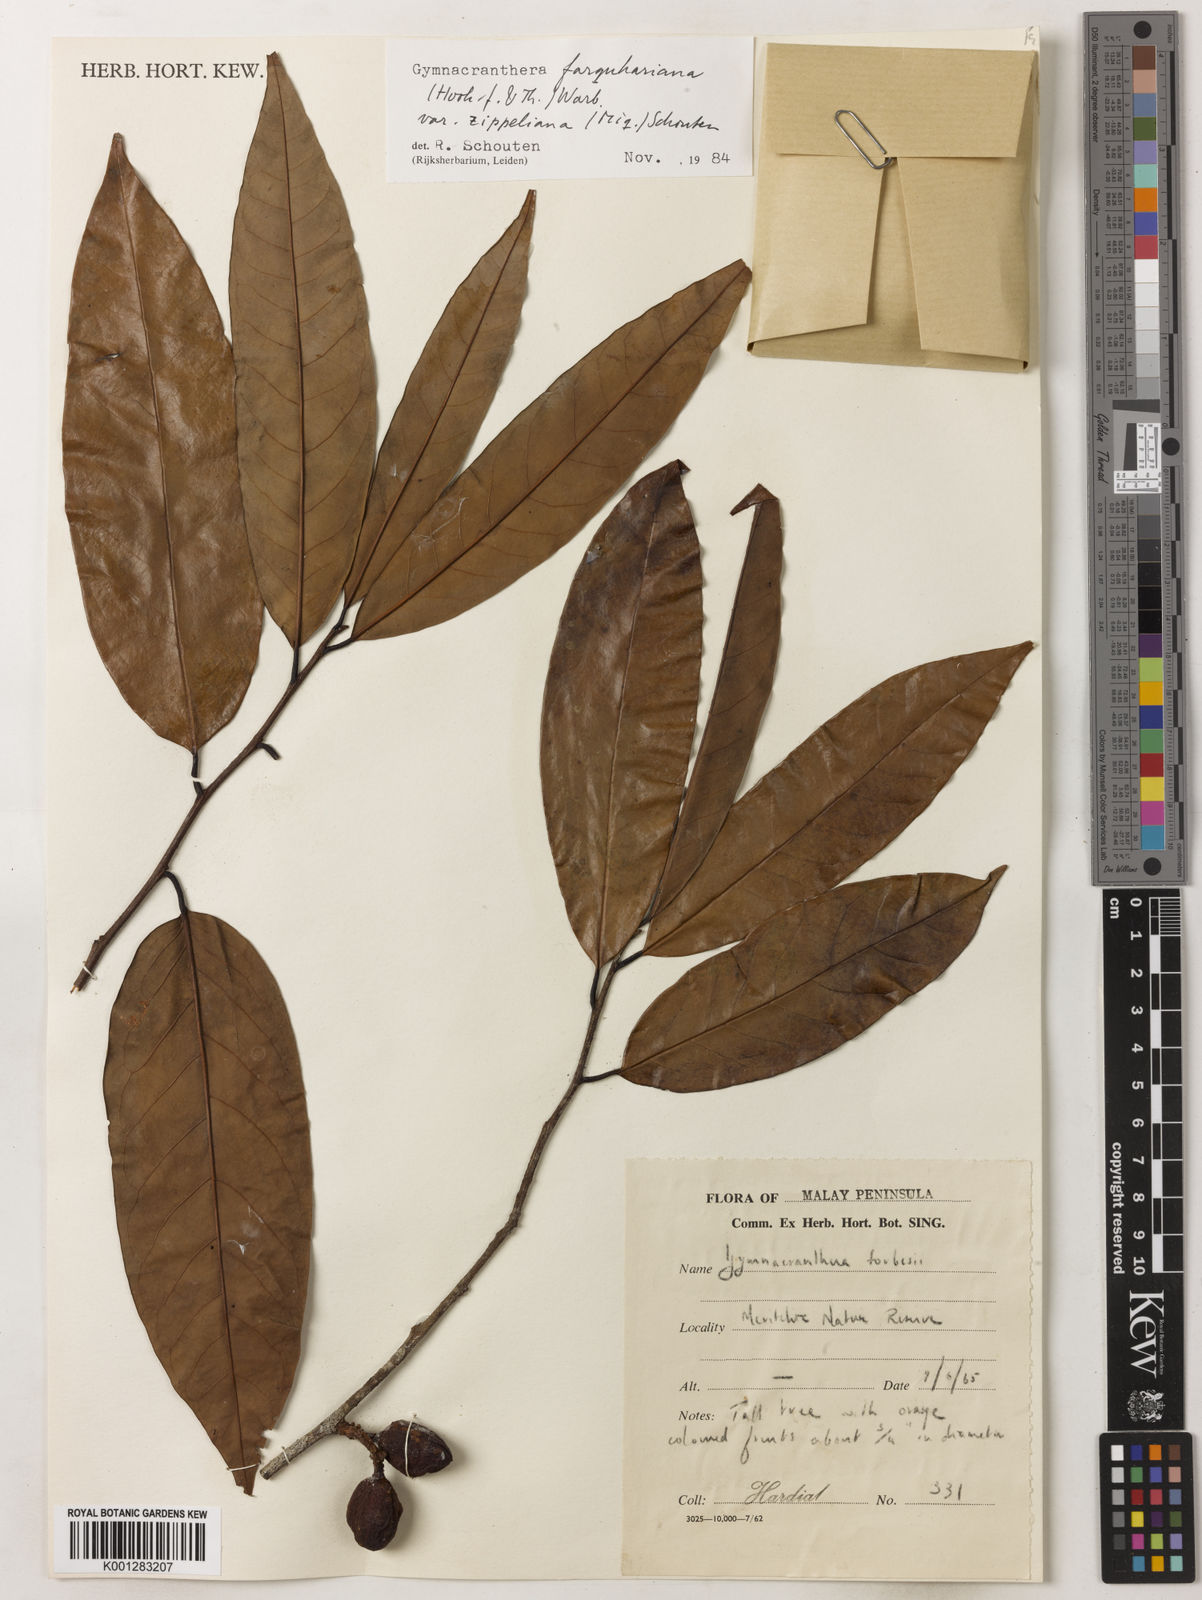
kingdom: Plantae
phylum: Tracheophyta
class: Magnoliopsida
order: Magnoliales
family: Myristicaceae
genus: Gymnacranthera
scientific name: Gymnacranthera farquhariana
